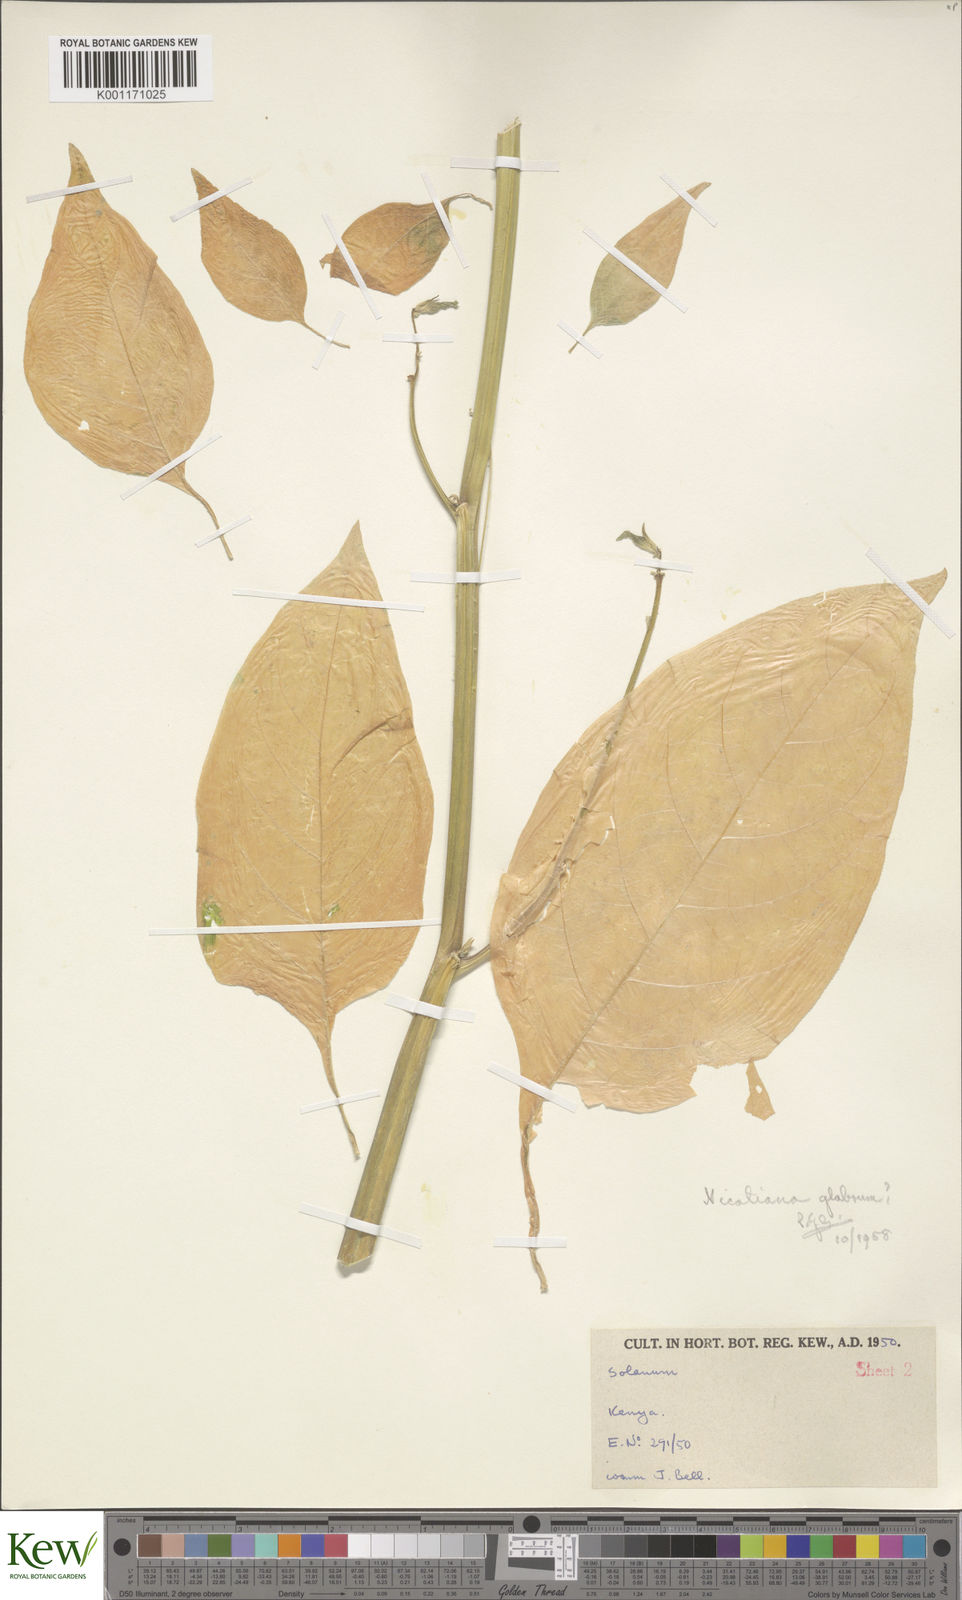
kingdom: Plantae
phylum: Tracheophyta
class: Magnoliopsida
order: Solanales
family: Solanaceae
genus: Solanum
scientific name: Solanum
